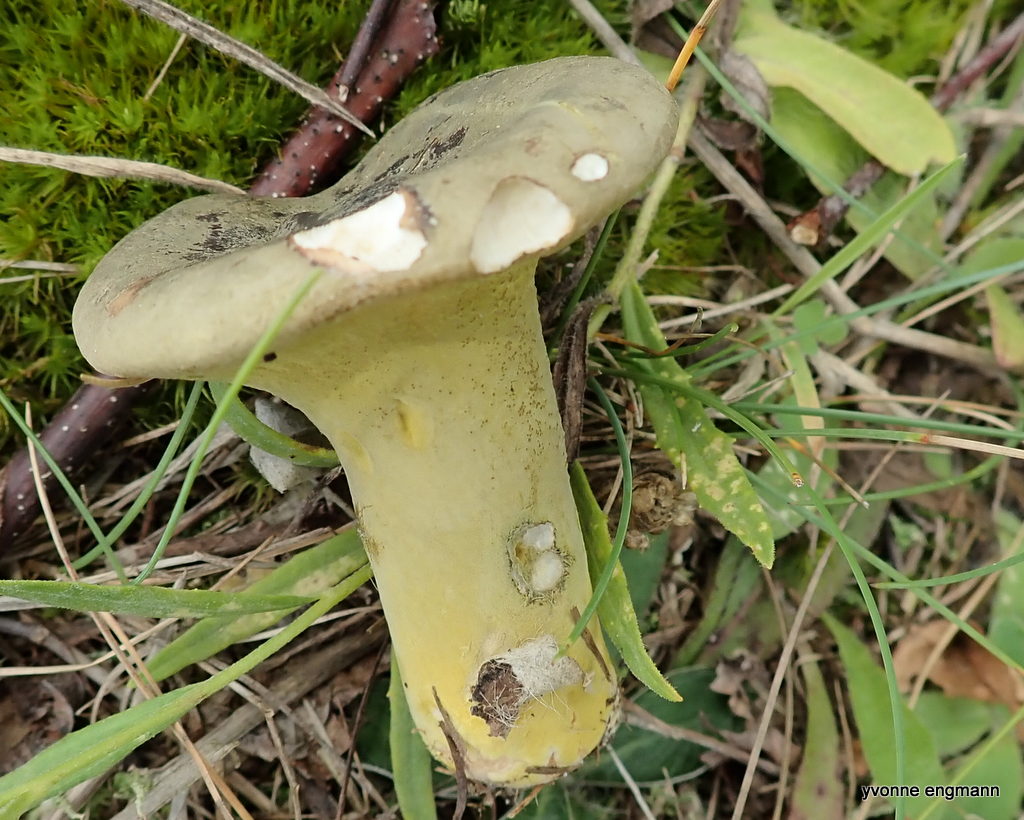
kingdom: Fungi
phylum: Ascomycota
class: Sordariomycetes
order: Hypocreales
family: Hypocreaceae
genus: Hypomyces
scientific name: Hypomyces luteovirens
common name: gulgrøn snylteskorpe
